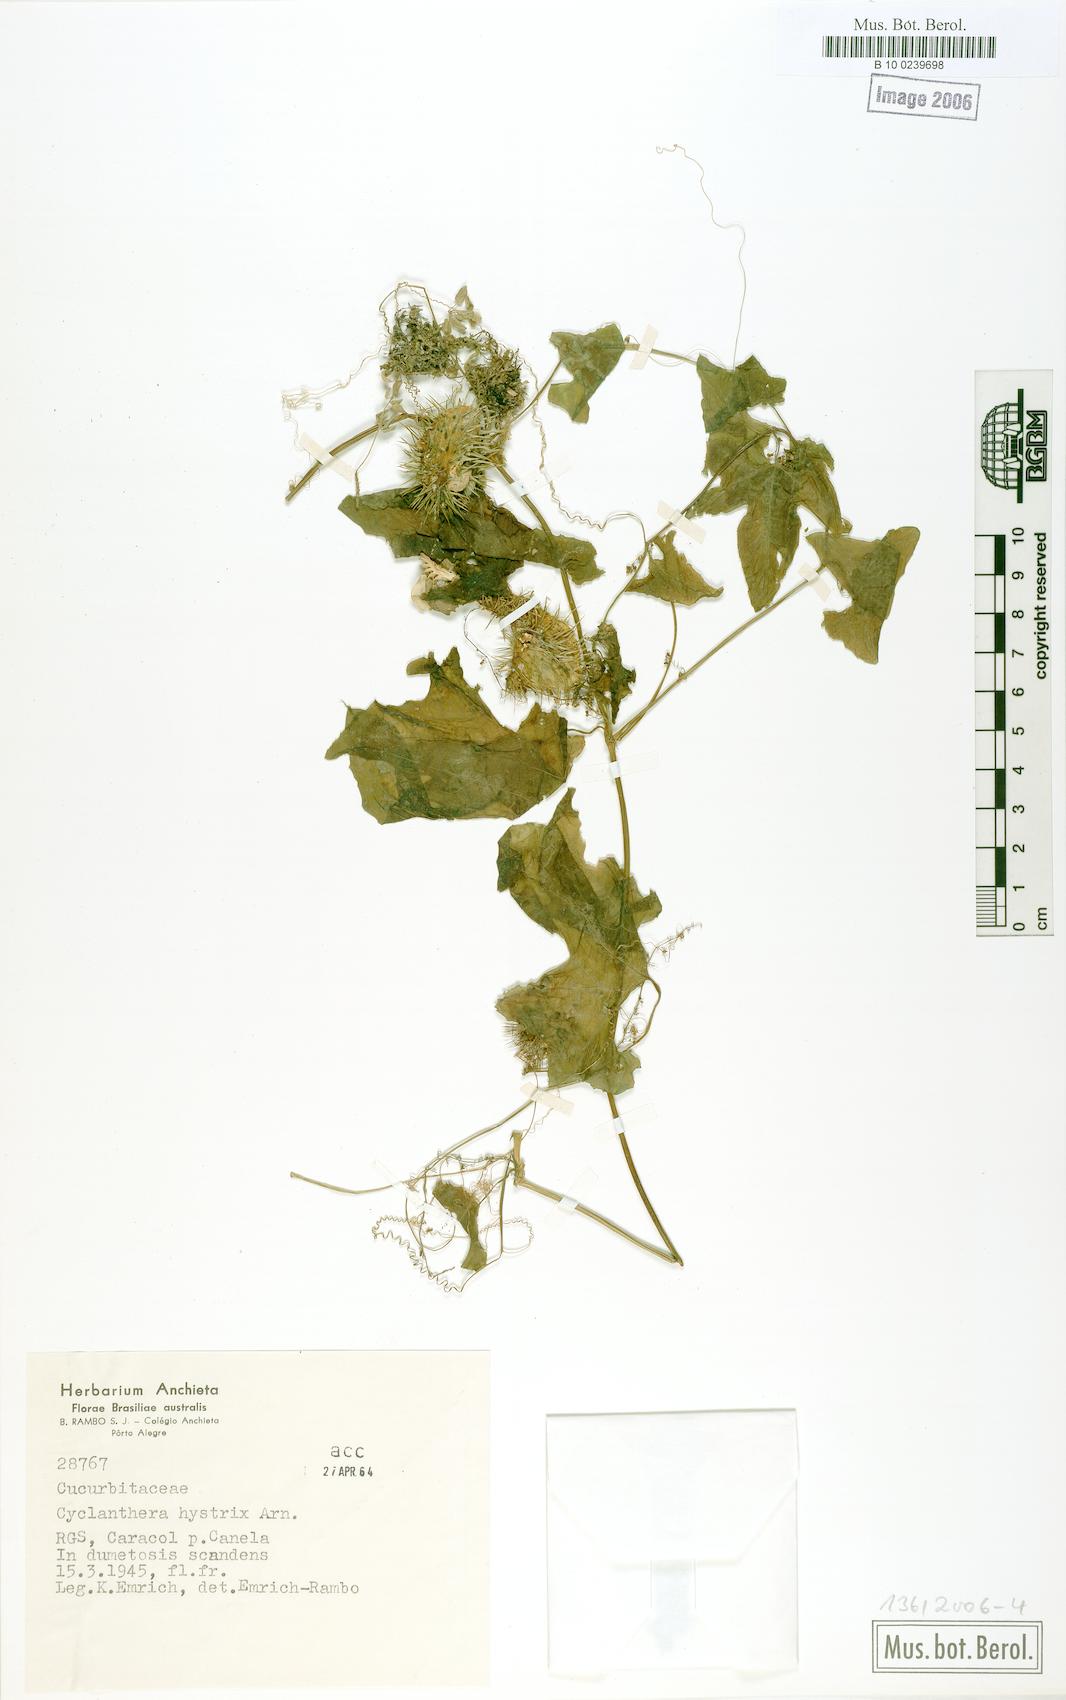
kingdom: Plantae
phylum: Tracheophyta
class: Magnoliopsida
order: Cucurbitales
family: Cucurbitaceae
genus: Cyclanthera
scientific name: Cyclanthera hystrix
